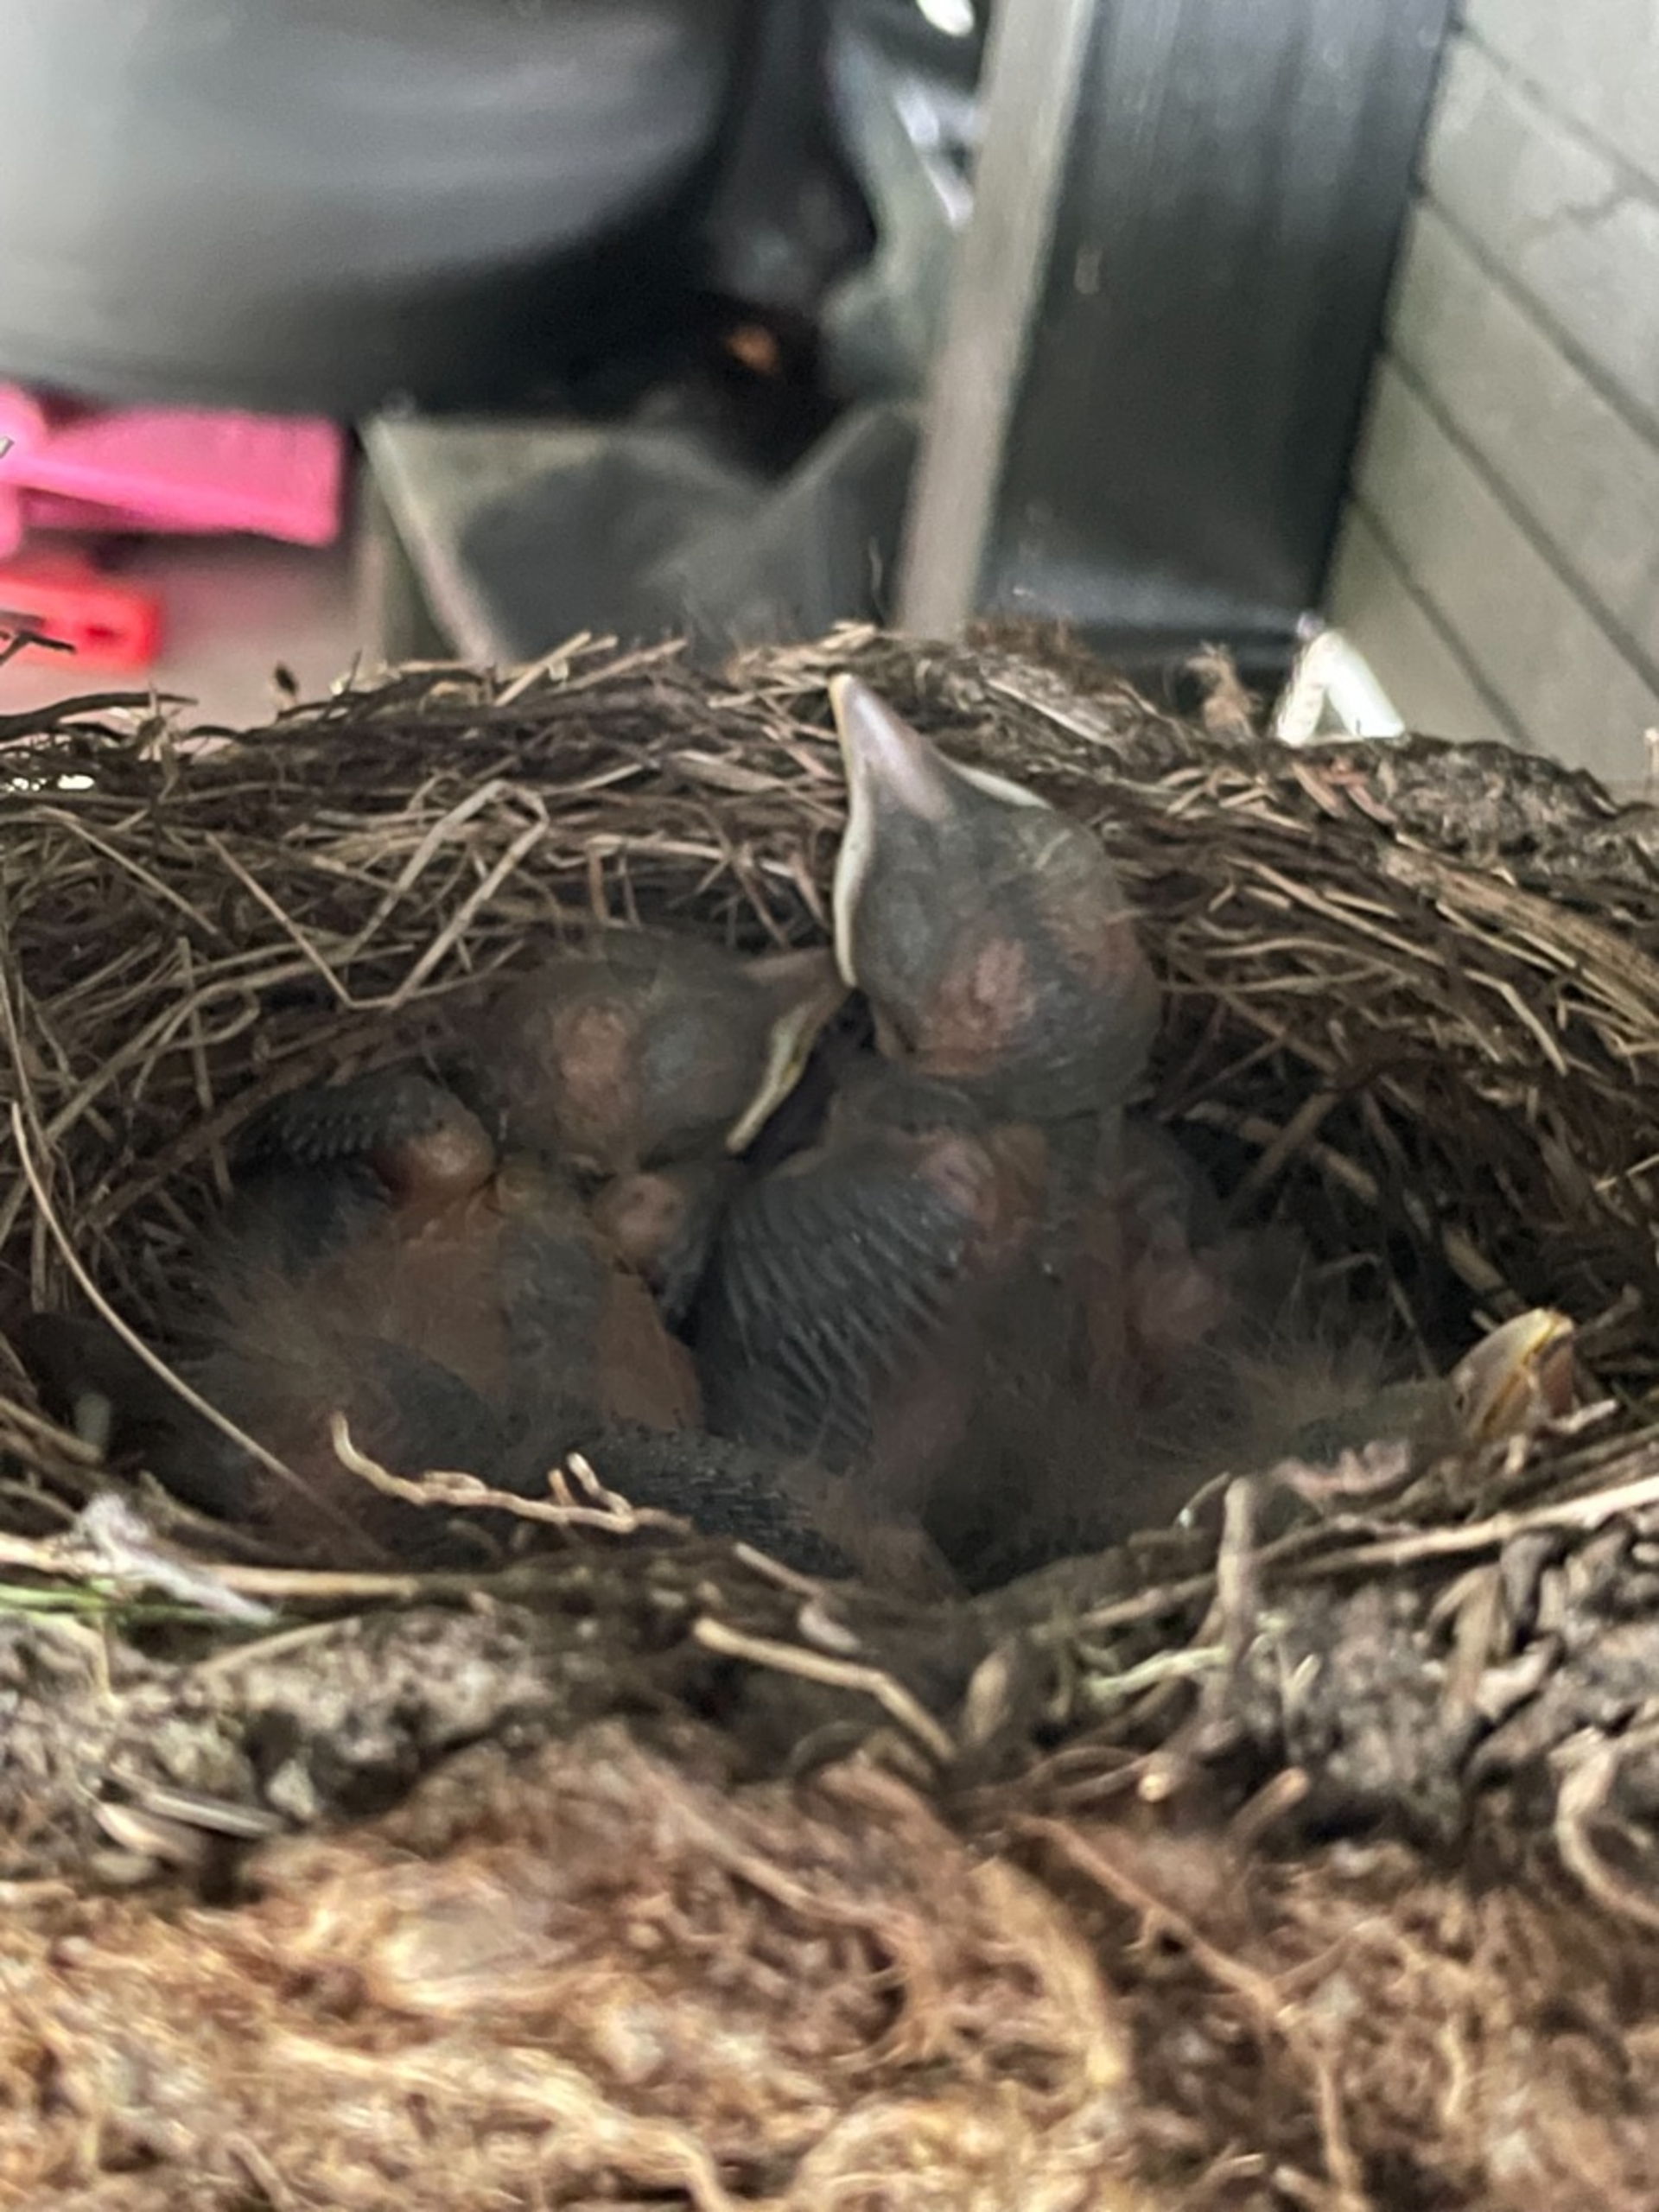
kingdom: Animalia
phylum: Chordata
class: Aves
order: Passeriformes
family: Turdidae
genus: Turdus
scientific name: Turdus merula
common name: Solsort
